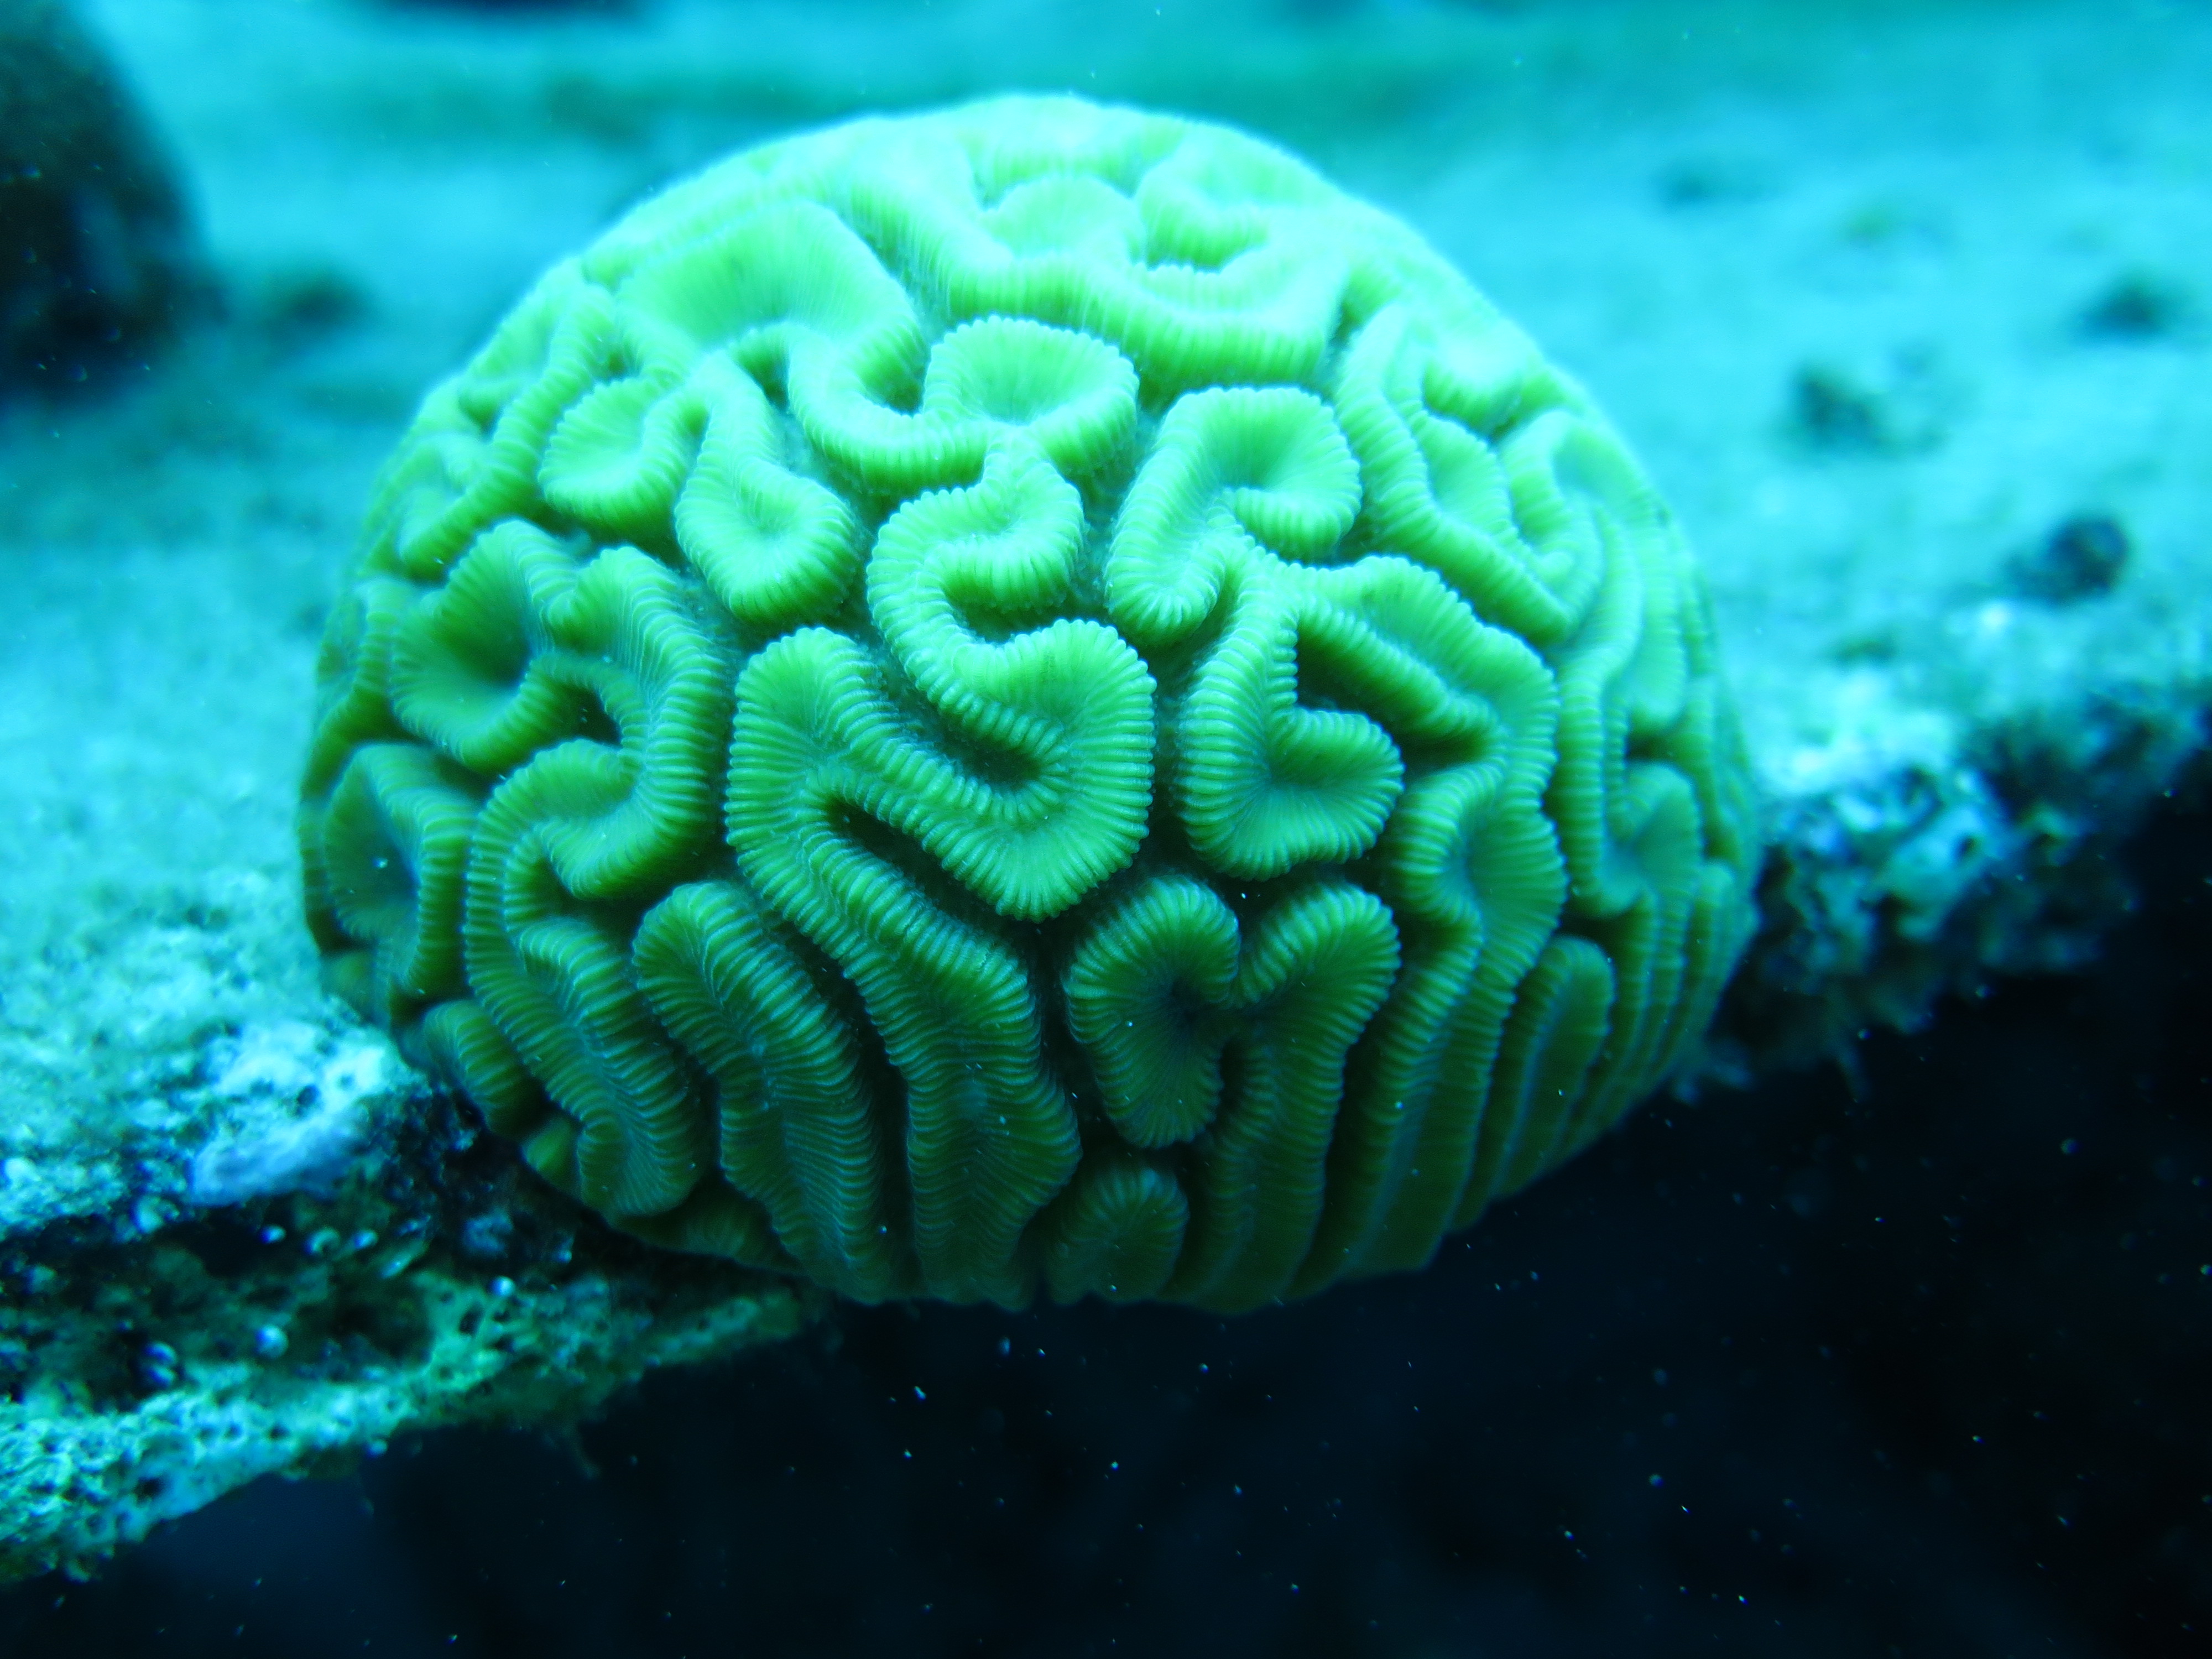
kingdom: Animalia
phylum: Cnidaria
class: Anthozoa
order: Scleractinia
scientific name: Scleractinia
